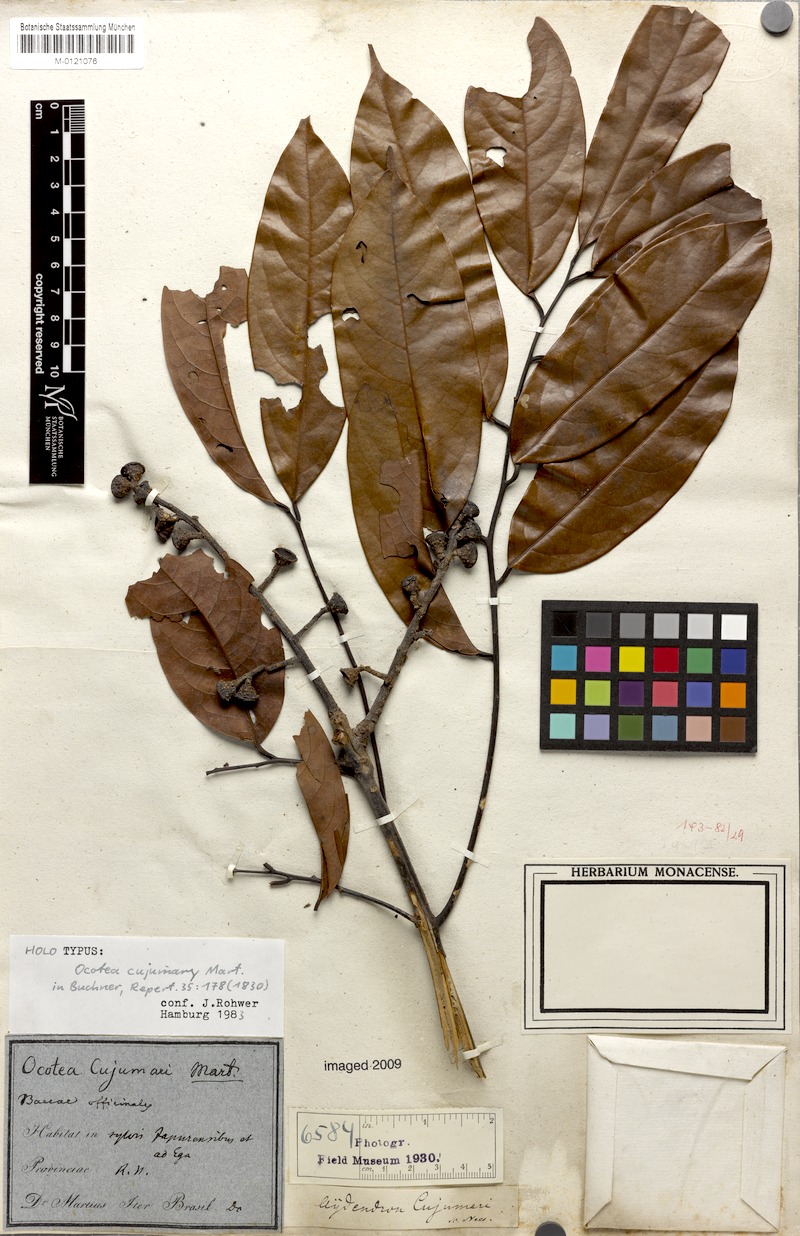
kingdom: Plantae
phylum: Tracheophyta
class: Magnoliopsida
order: Laurales
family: Lauraceae
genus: Ocotea
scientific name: Ocotea cujumary
